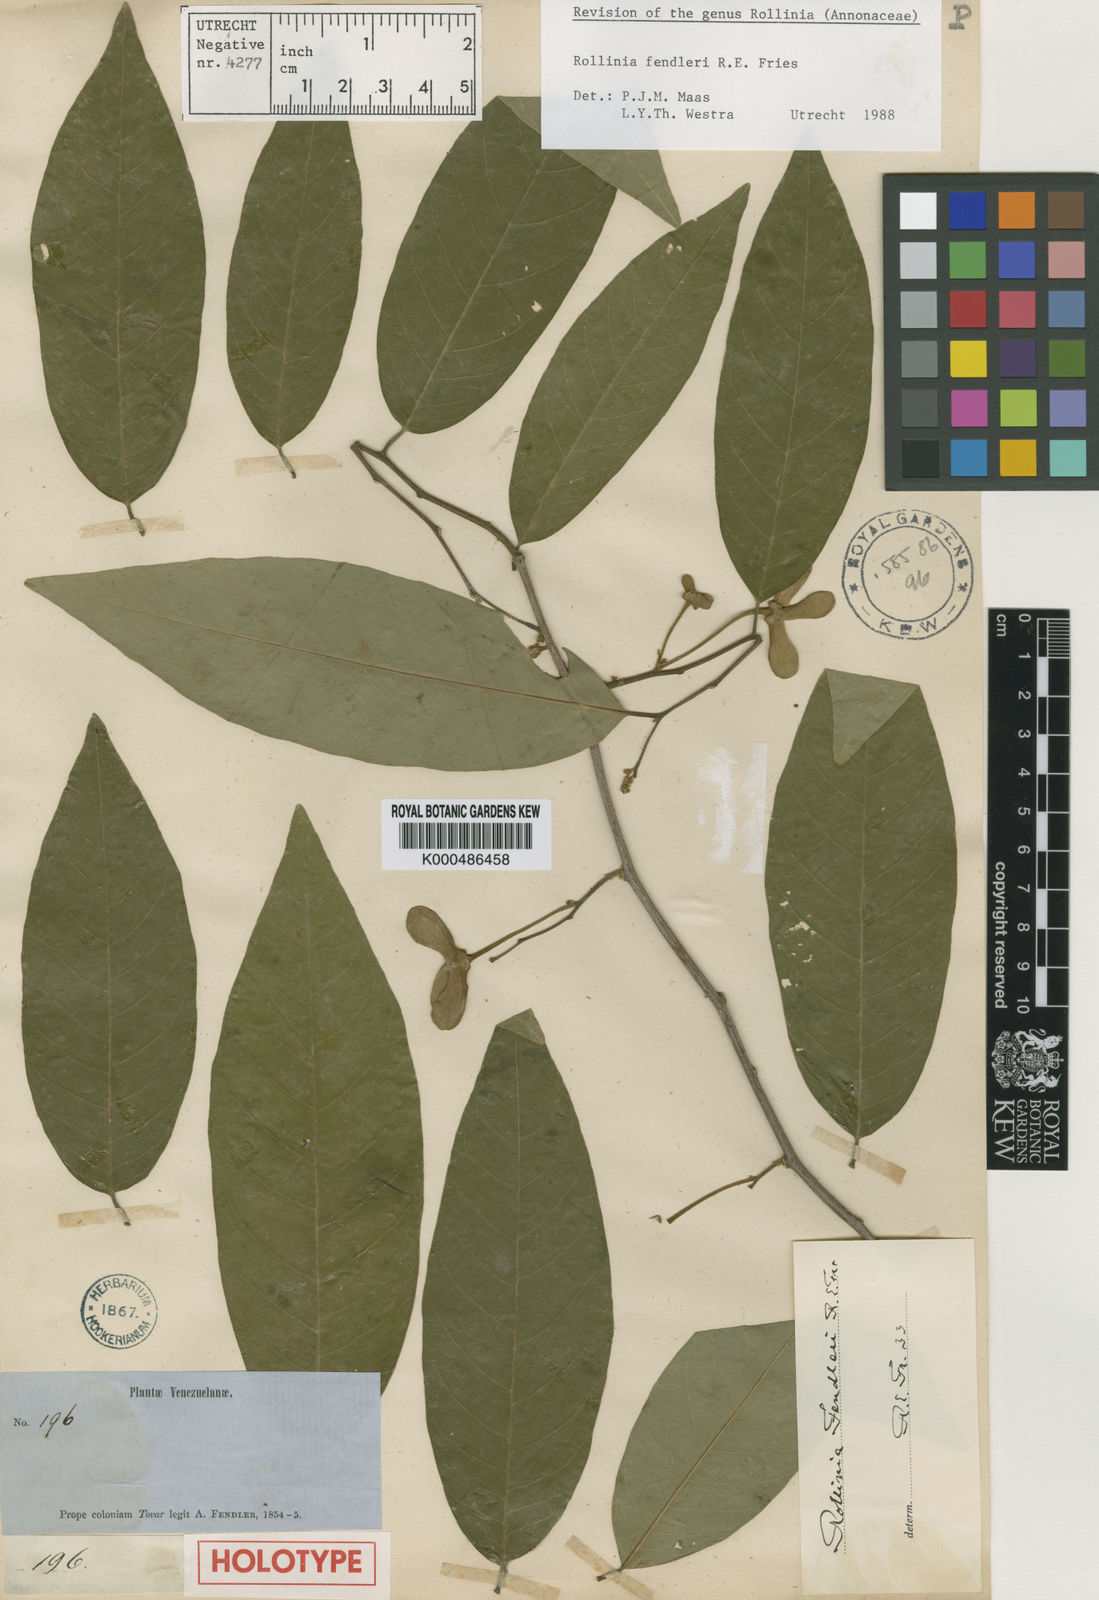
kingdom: Plantae
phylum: Tracheophyta
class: Magnoliopsida
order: Magnoliales
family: Annonaceae
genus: Annona
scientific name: Annona fendleri
